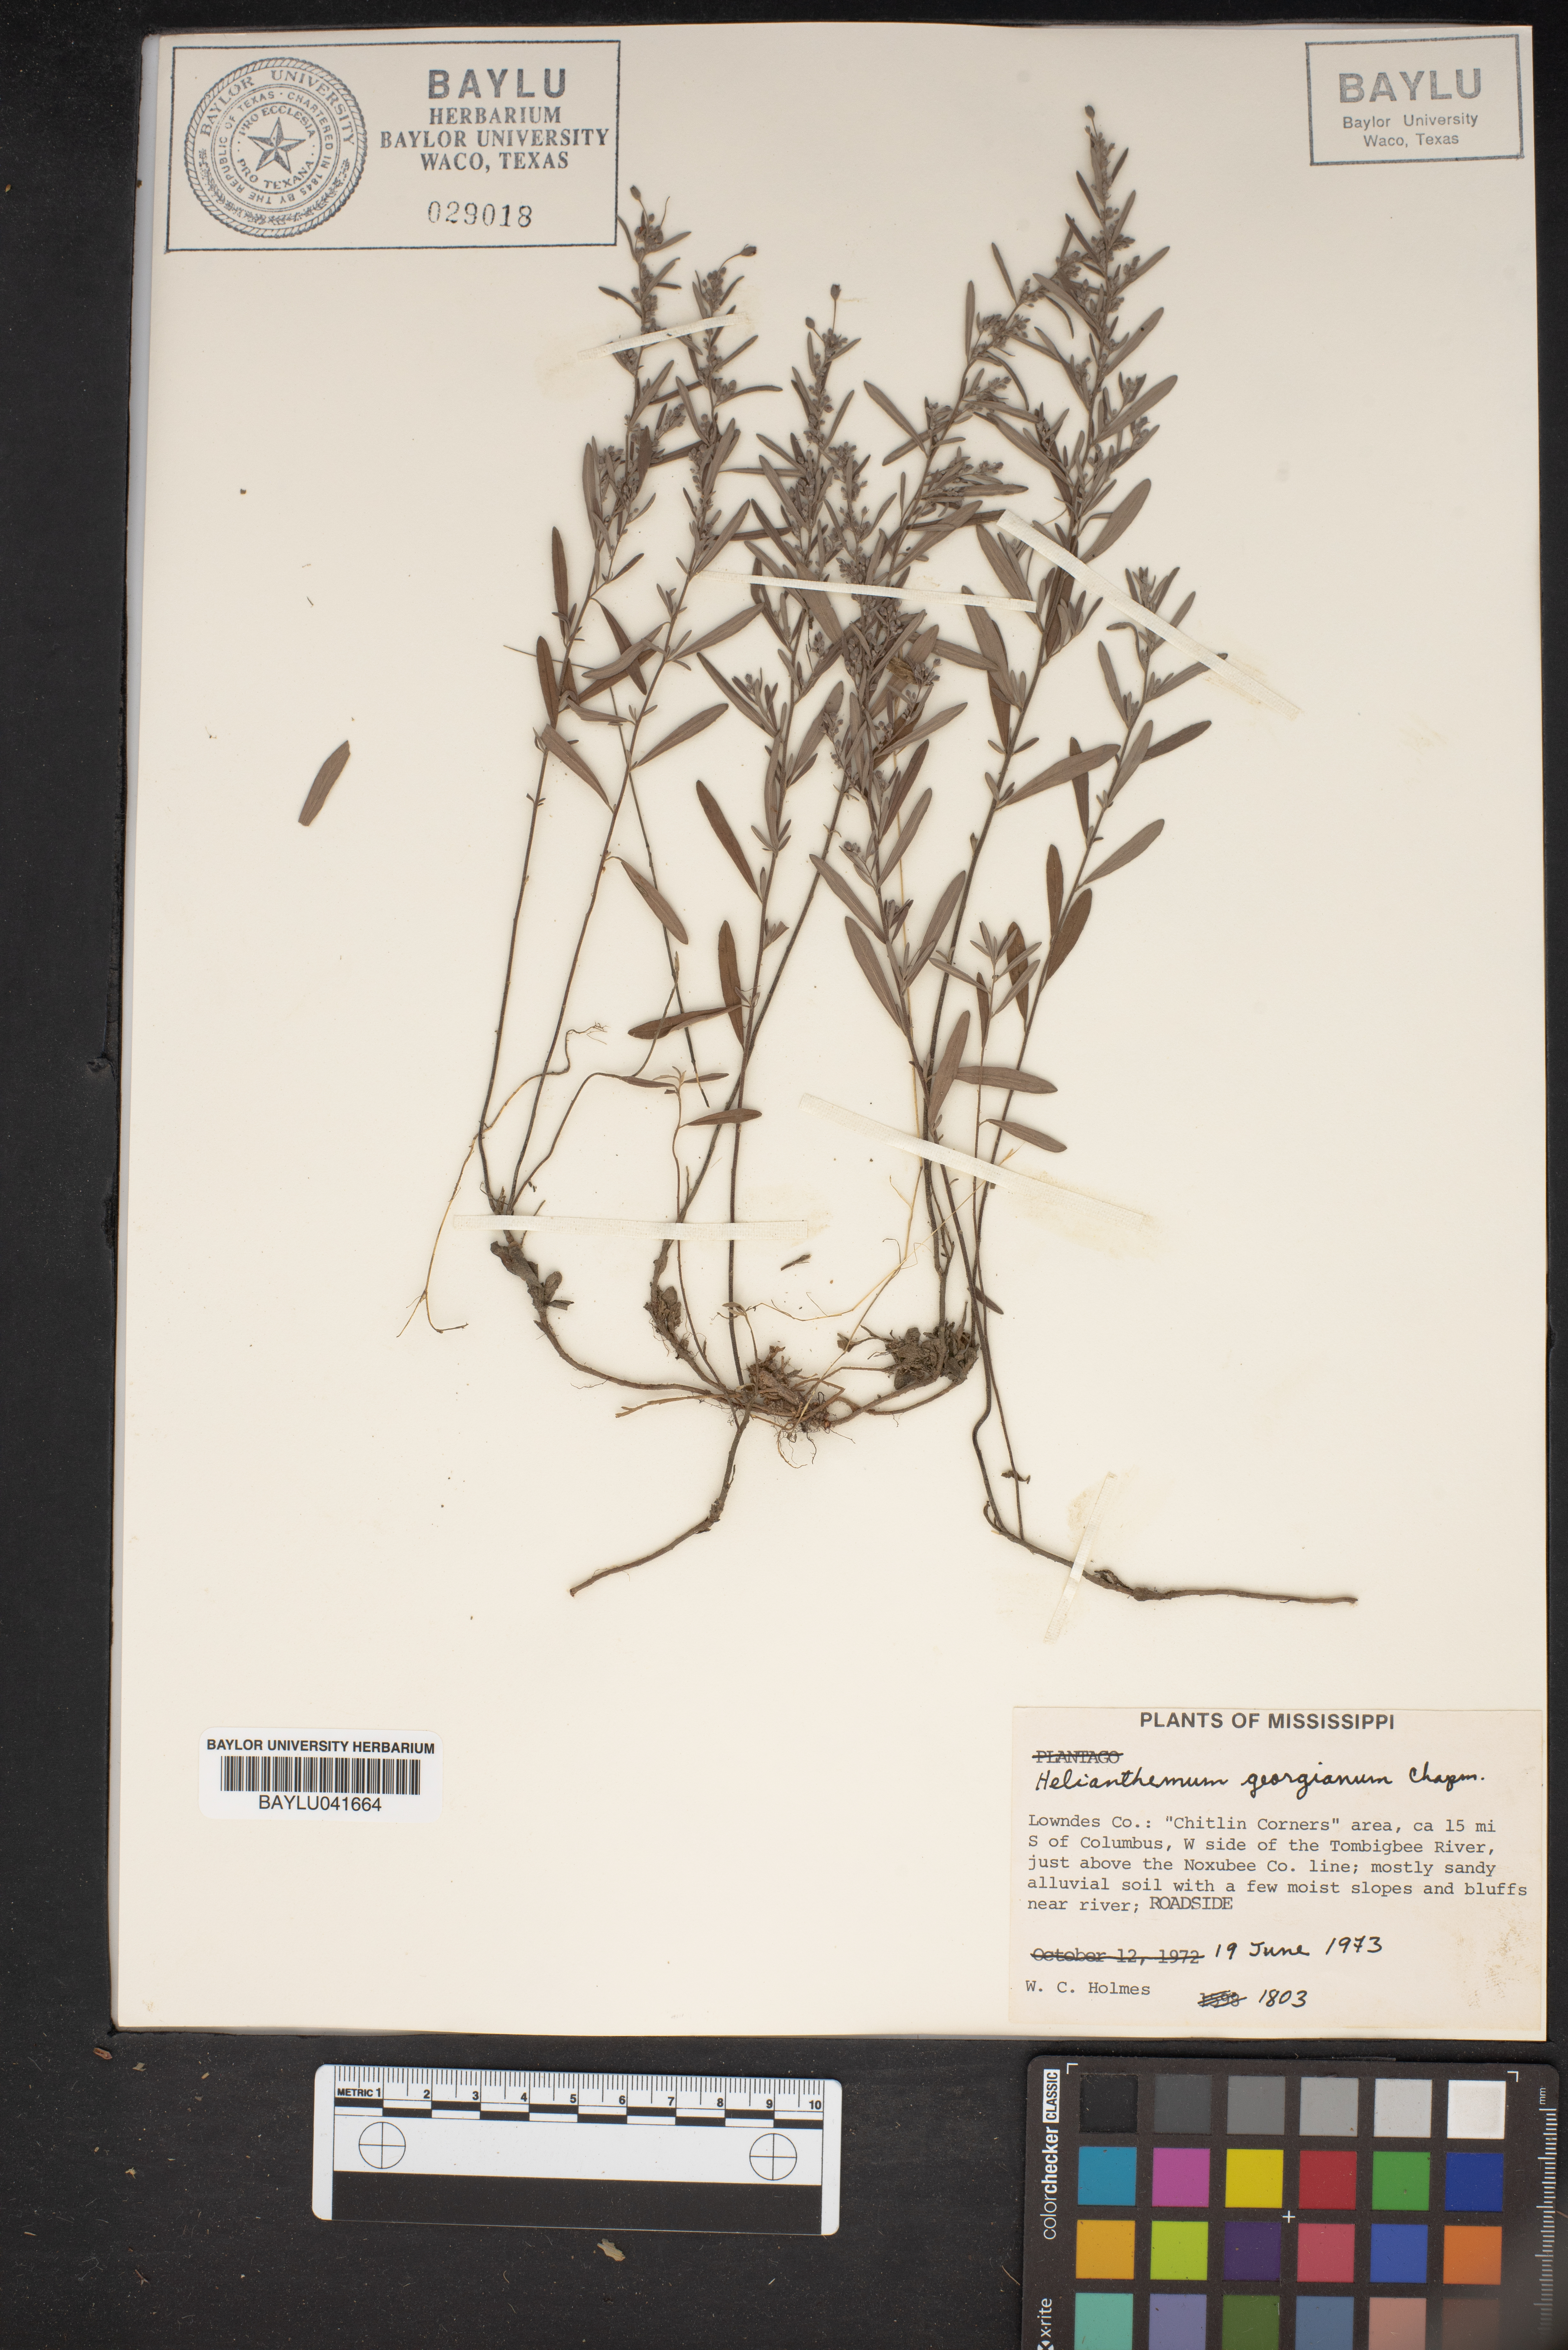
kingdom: Plantae
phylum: Tracheophyta
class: Magnoliopsida
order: Malvales
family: Cistaceae
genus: Crocanthemum
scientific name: Crocanthemum georgianum
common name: Georgia frostweed
